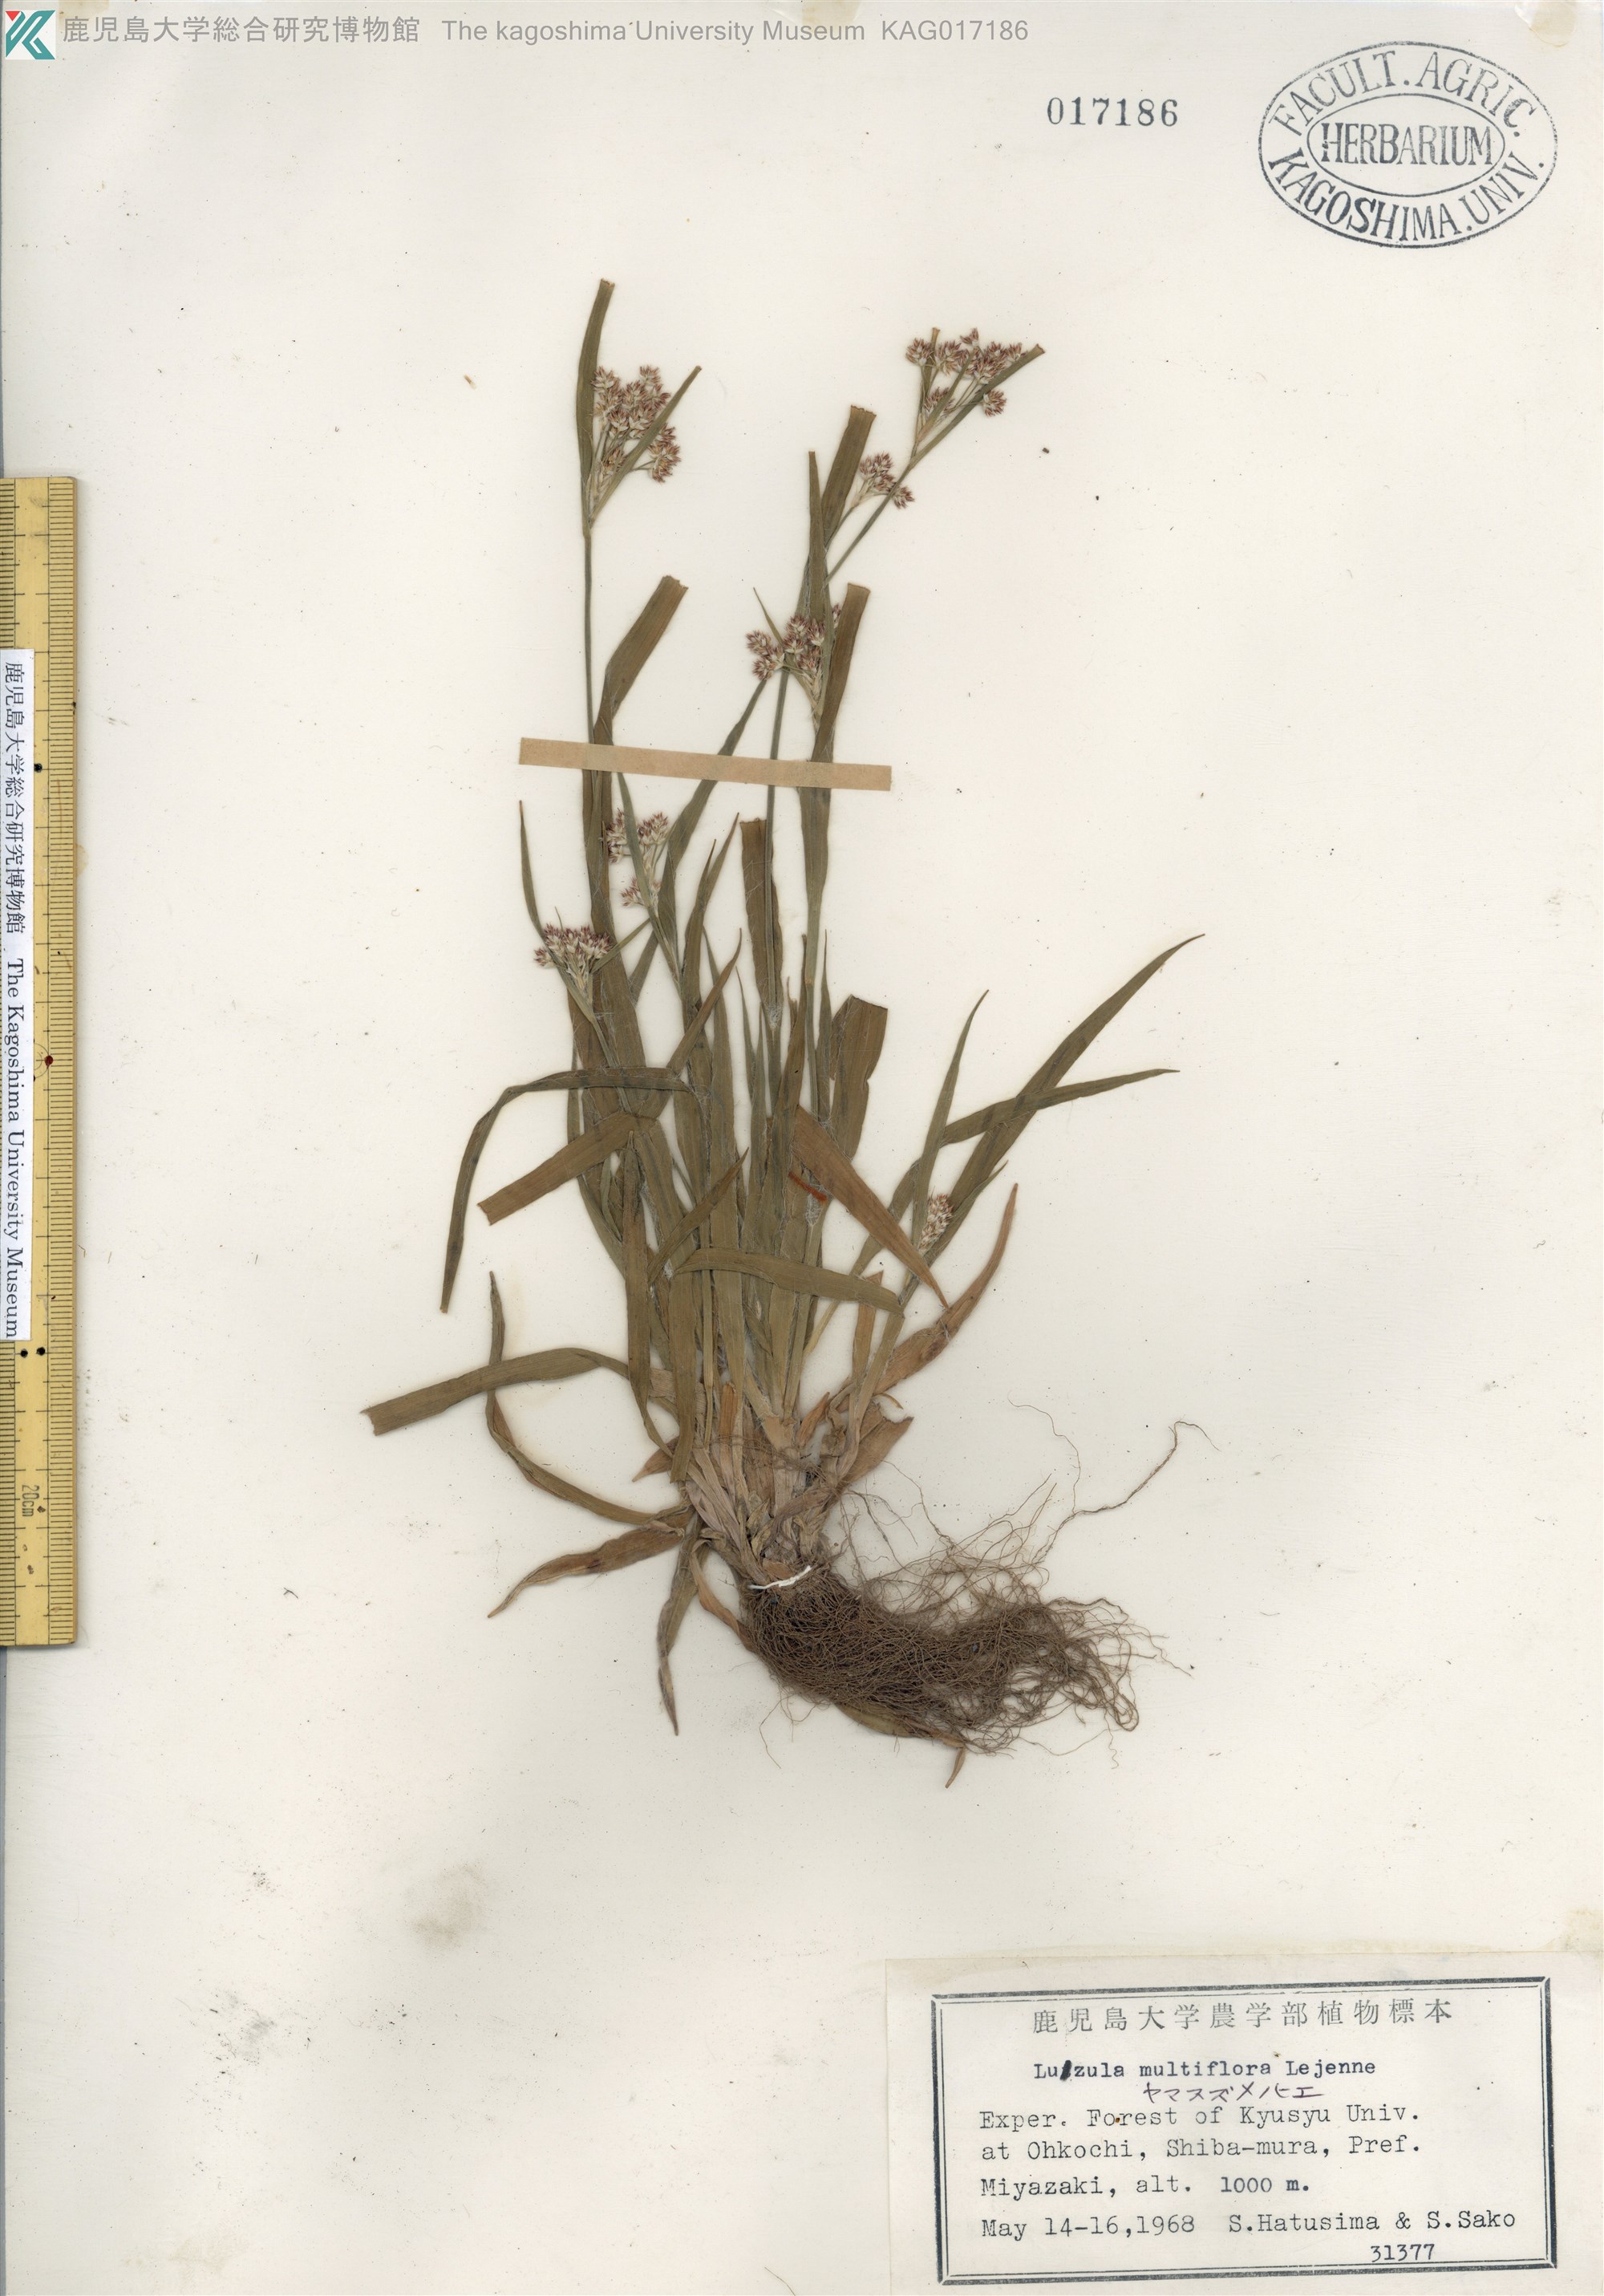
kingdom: Plantae
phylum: Tracheophyta
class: Liliopsida
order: Poales
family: Juncaceae
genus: Luzula
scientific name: Luzula multiflora
